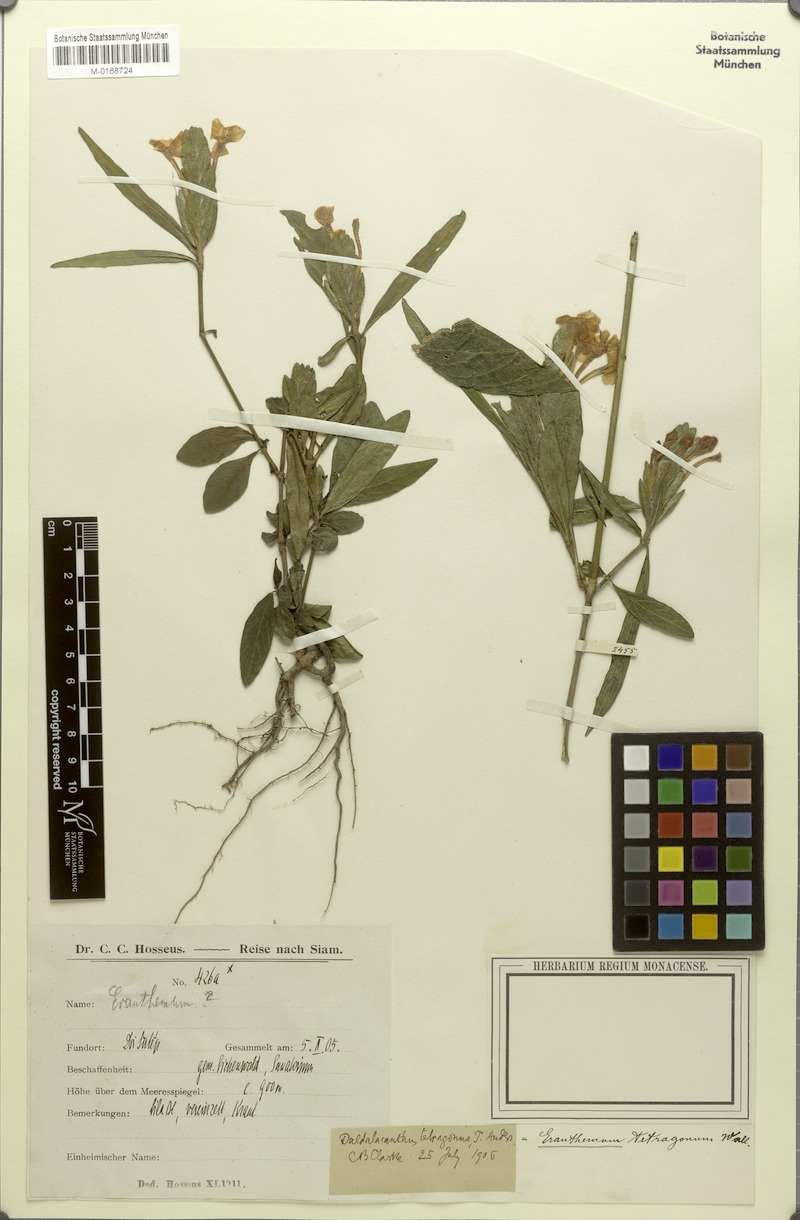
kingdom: Plantae
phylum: Tracheophyta
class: Magnoliopsida
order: Lamiales
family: Acanthaceae
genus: Eranthemum
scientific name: Eranthemum tetragonum
